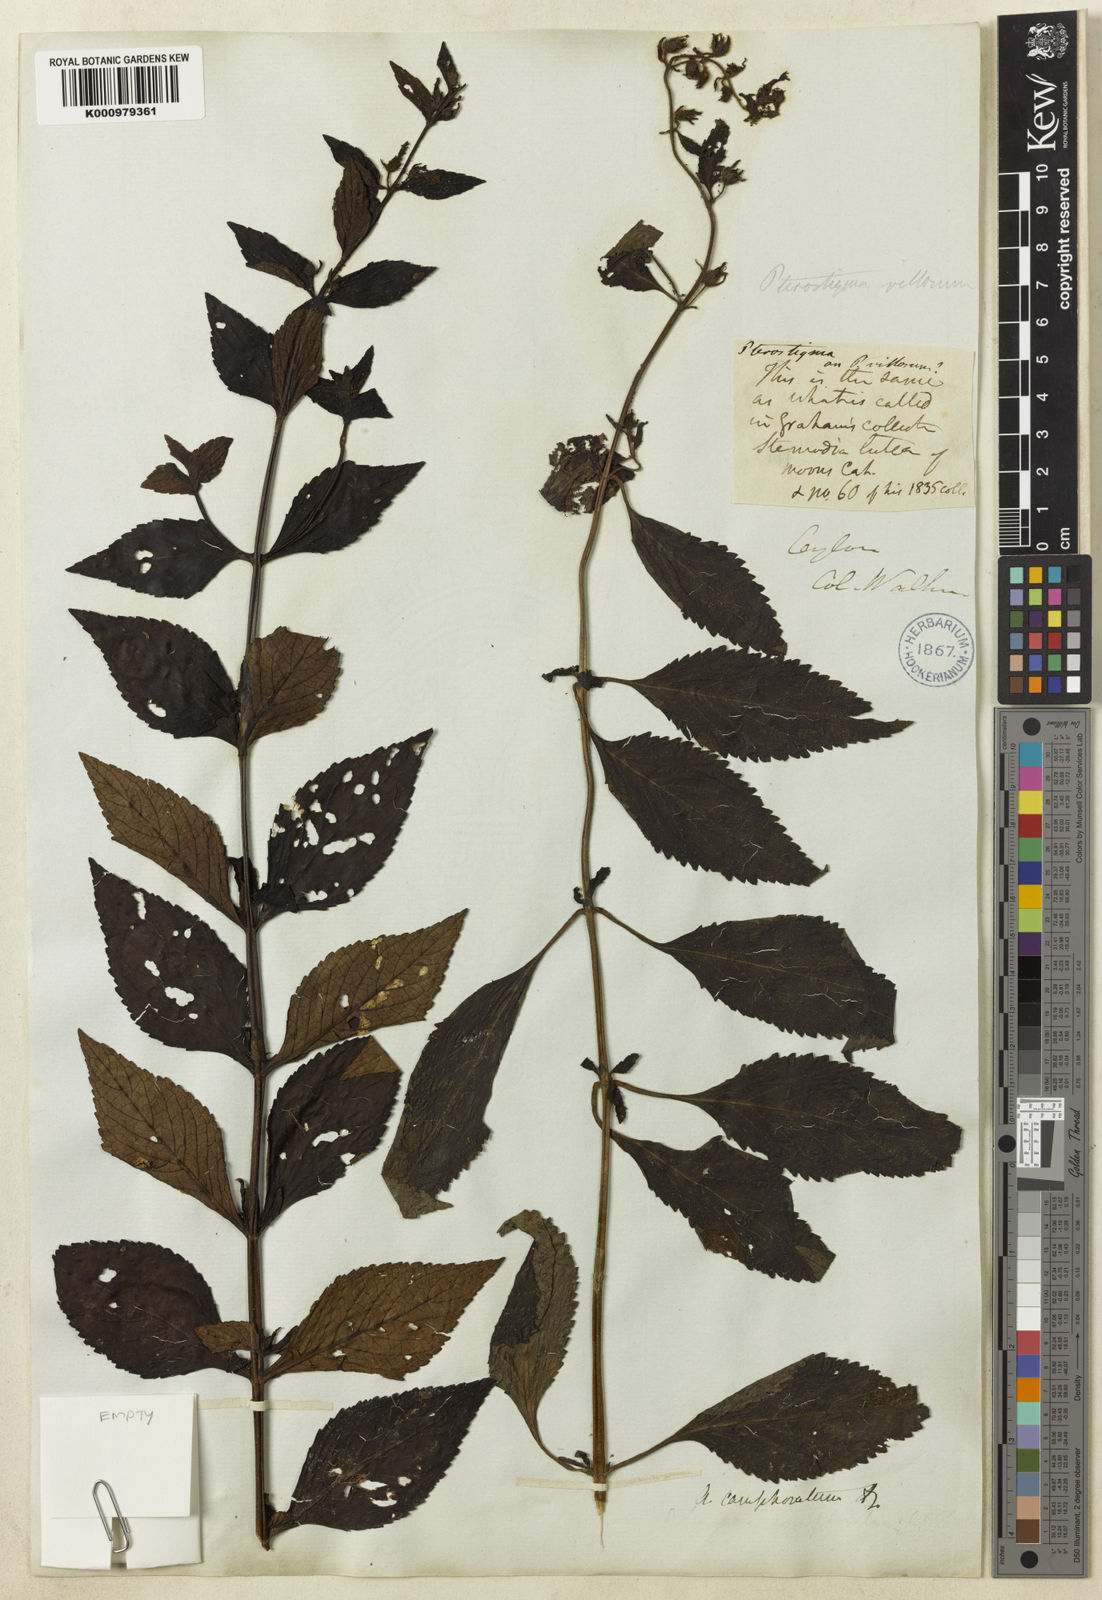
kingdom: Plantae
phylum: Tracheophyta
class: Magnoliopsida
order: Lamiales
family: Plantaginaceae
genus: Adenosma
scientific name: Adenosma camphorata
